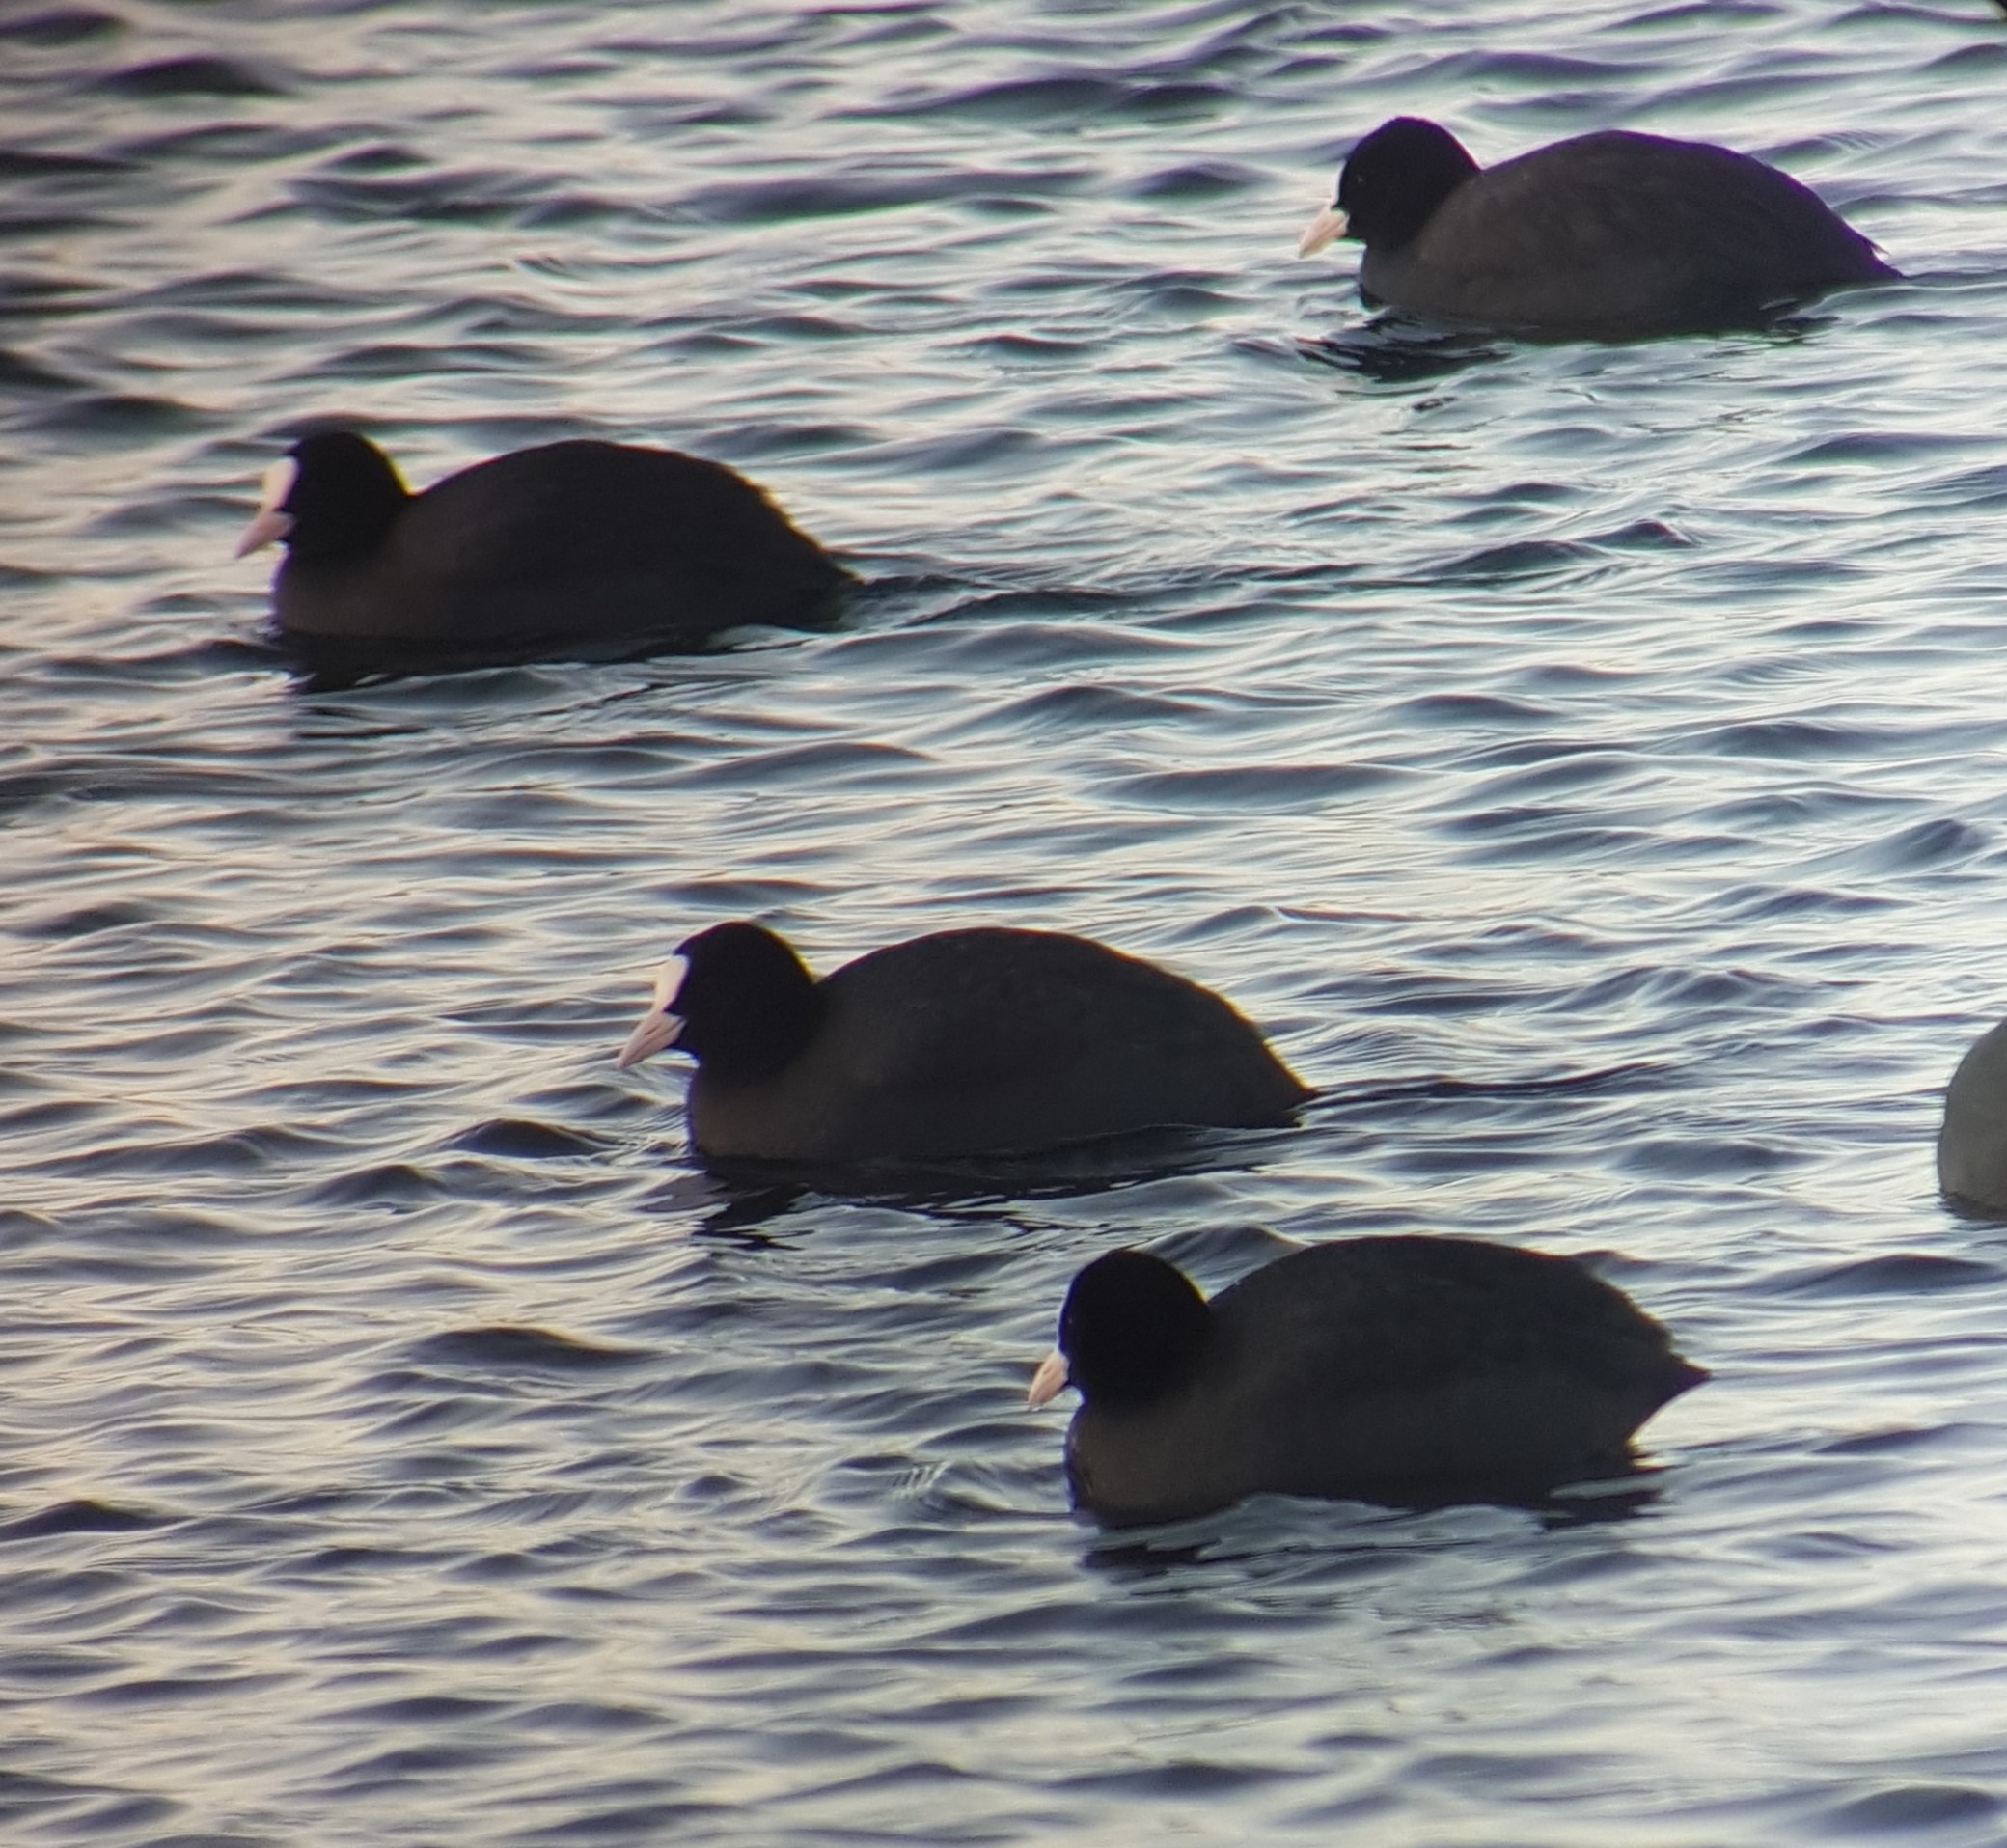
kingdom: Animalia
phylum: Chordata
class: Aves
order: Gruiformes
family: Rallidae
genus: Fulica
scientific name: Fulica atra
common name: Blishøne
